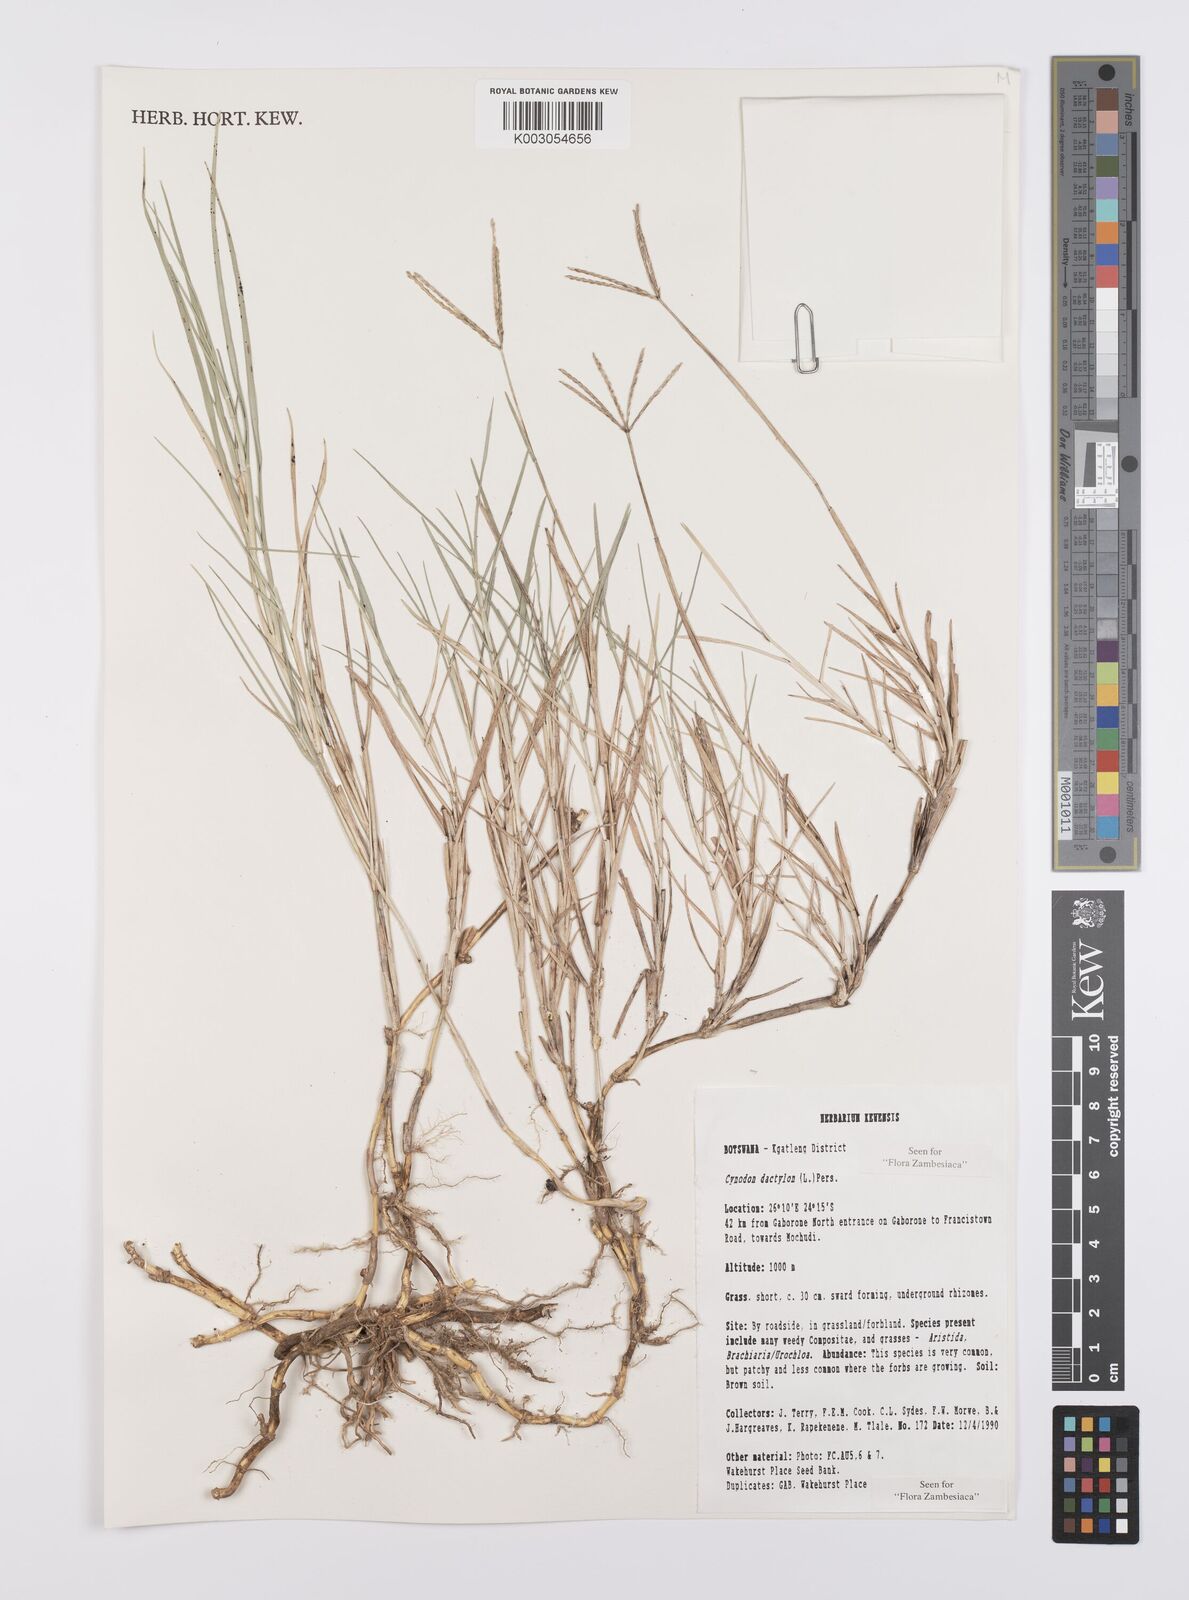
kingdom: Plantae
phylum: Tracheophyta
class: Liliopsida
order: Poales
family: Poaceae
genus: Cynodon
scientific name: Cynodon dactylon
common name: Bermuda grass
